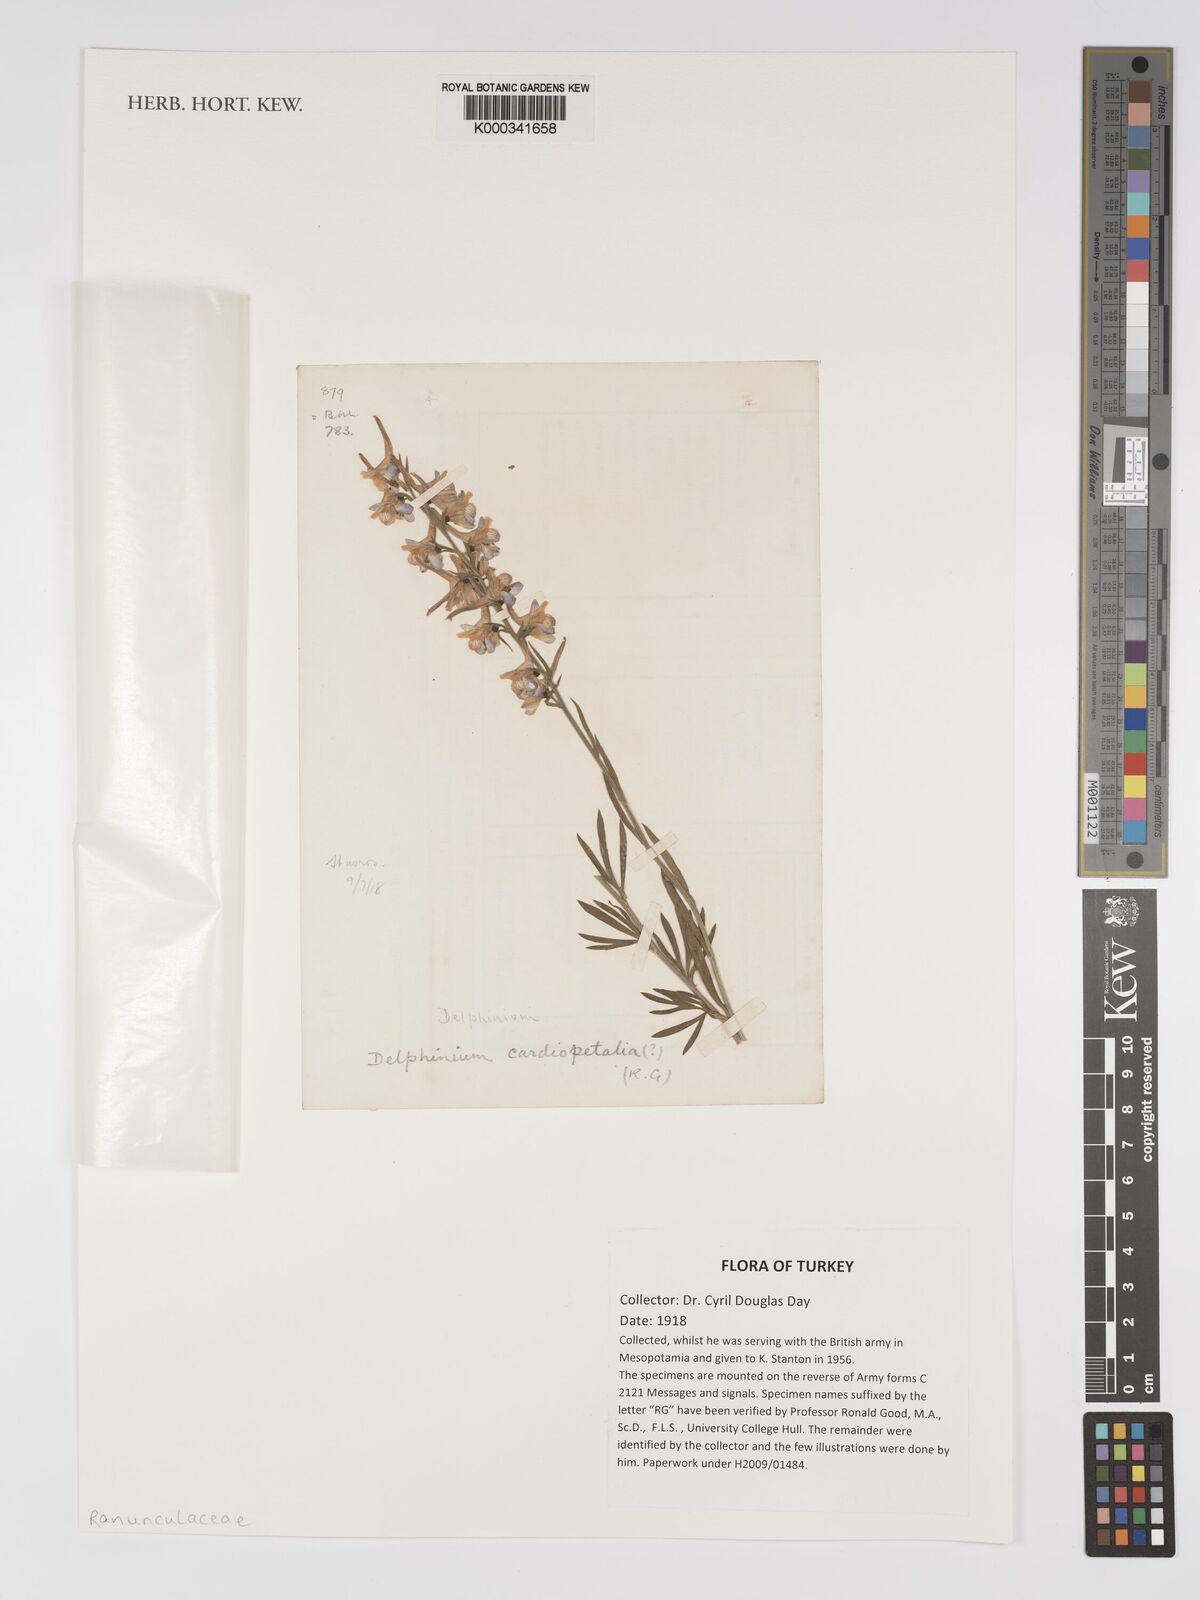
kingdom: Plantae
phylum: Tracheophyta
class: Magnoliopsida
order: Ranunculales
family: Ranunculaceae
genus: Delphinium
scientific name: Delphinium halteratum
